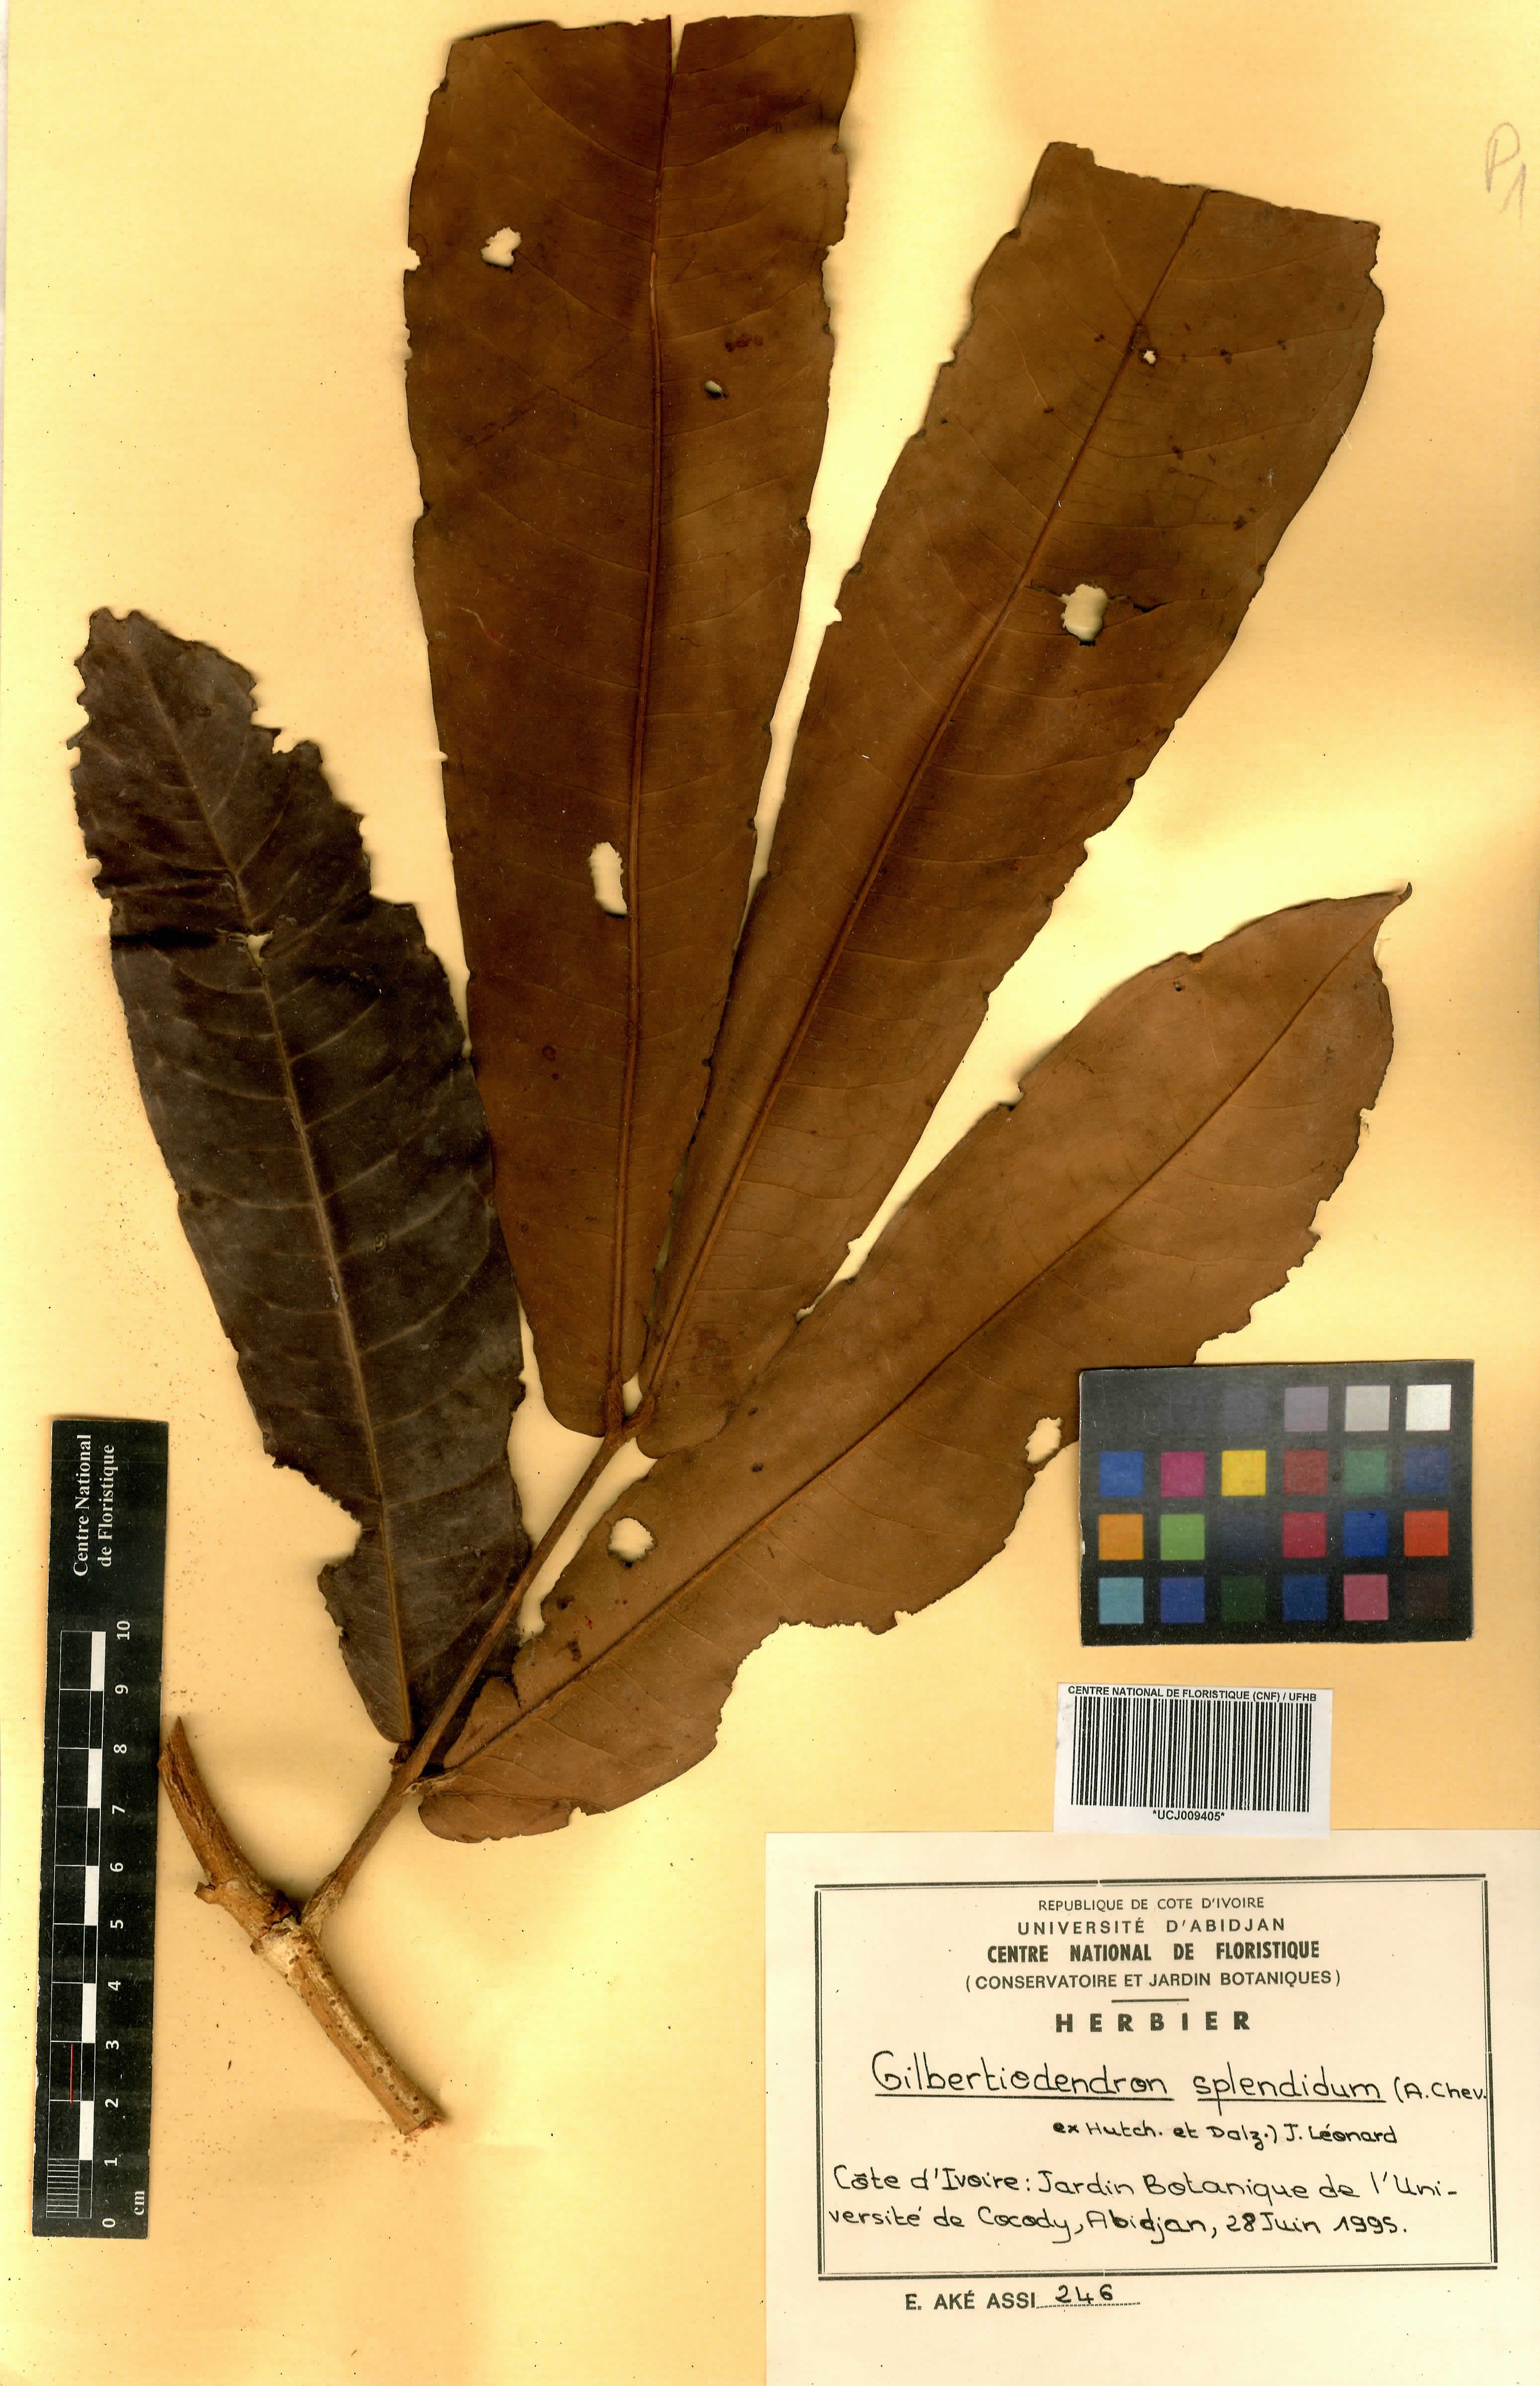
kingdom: Plantae
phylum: Tracheophyta
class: Magnoliopsida
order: Fabales
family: Fabaceae
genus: Gilbertiodendron
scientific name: Gilbertiodendron splendidum
